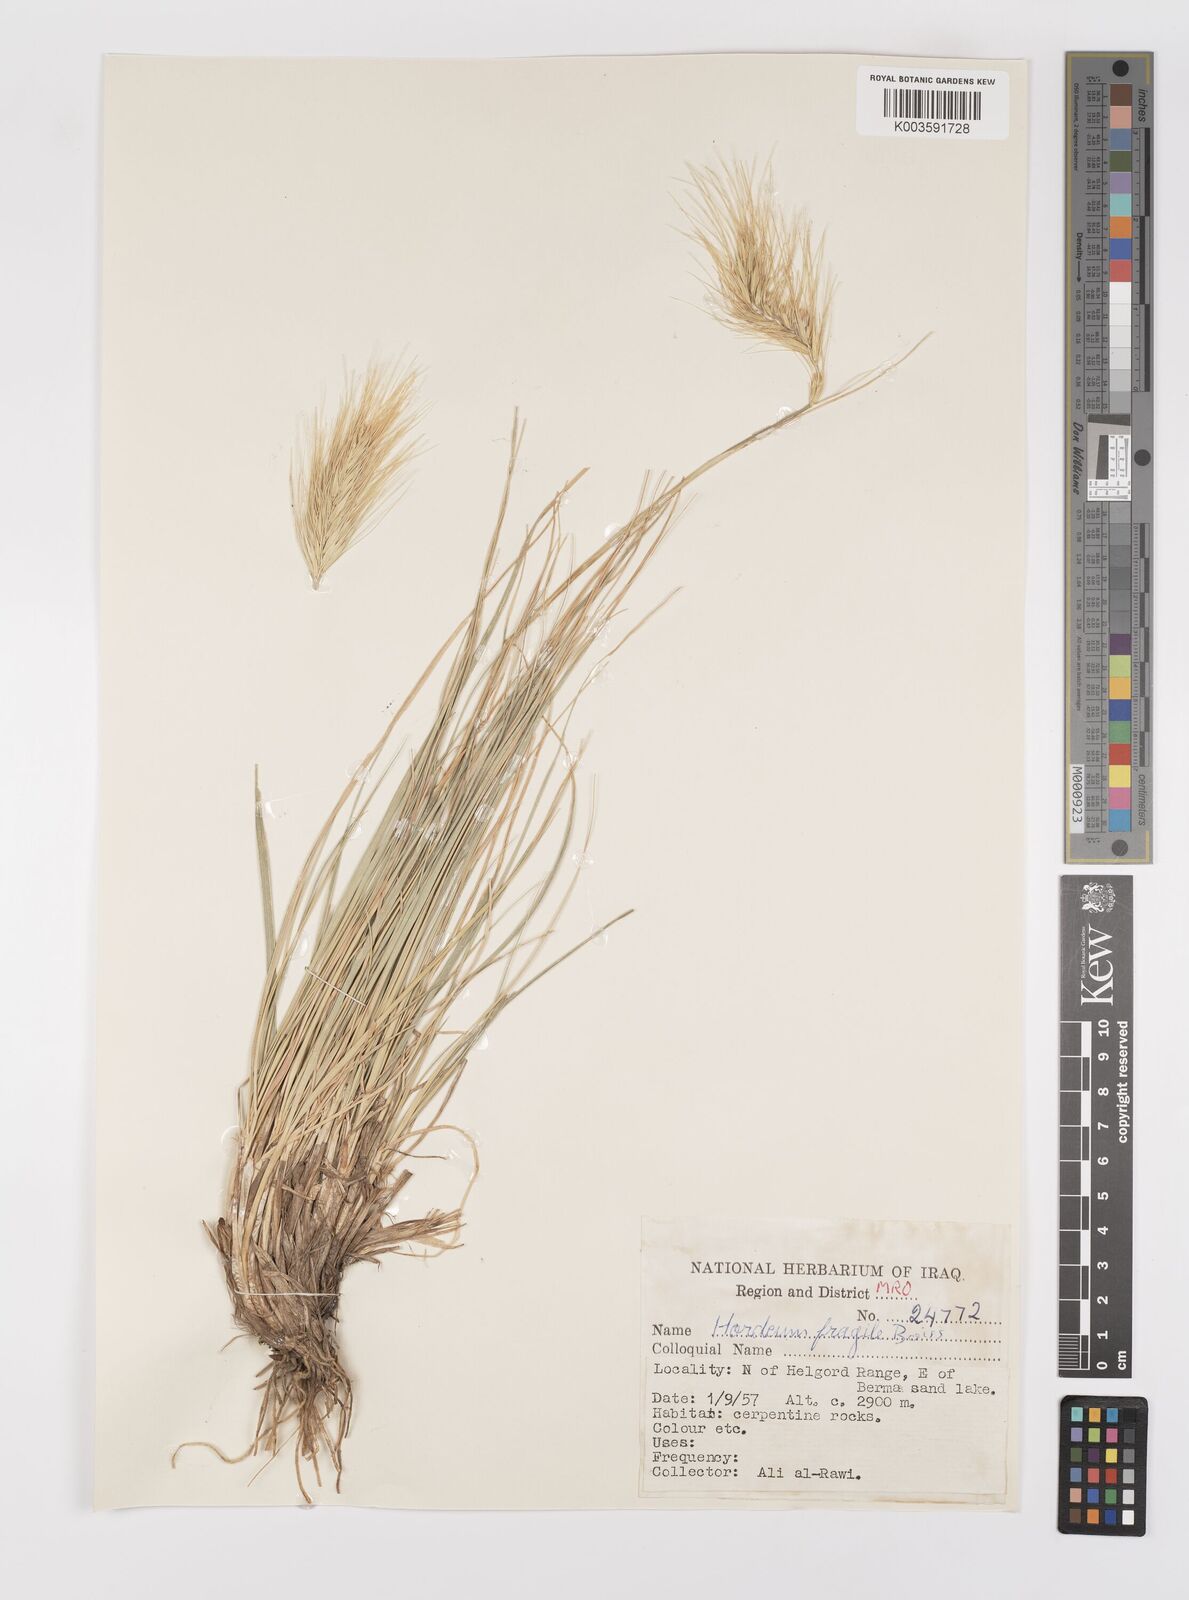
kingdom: Plantae
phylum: Tracheophyta
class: Liliopsida
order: Poales
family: Poaceae
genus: Psathyrostachys
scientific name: Psathyrostachys fragilis
